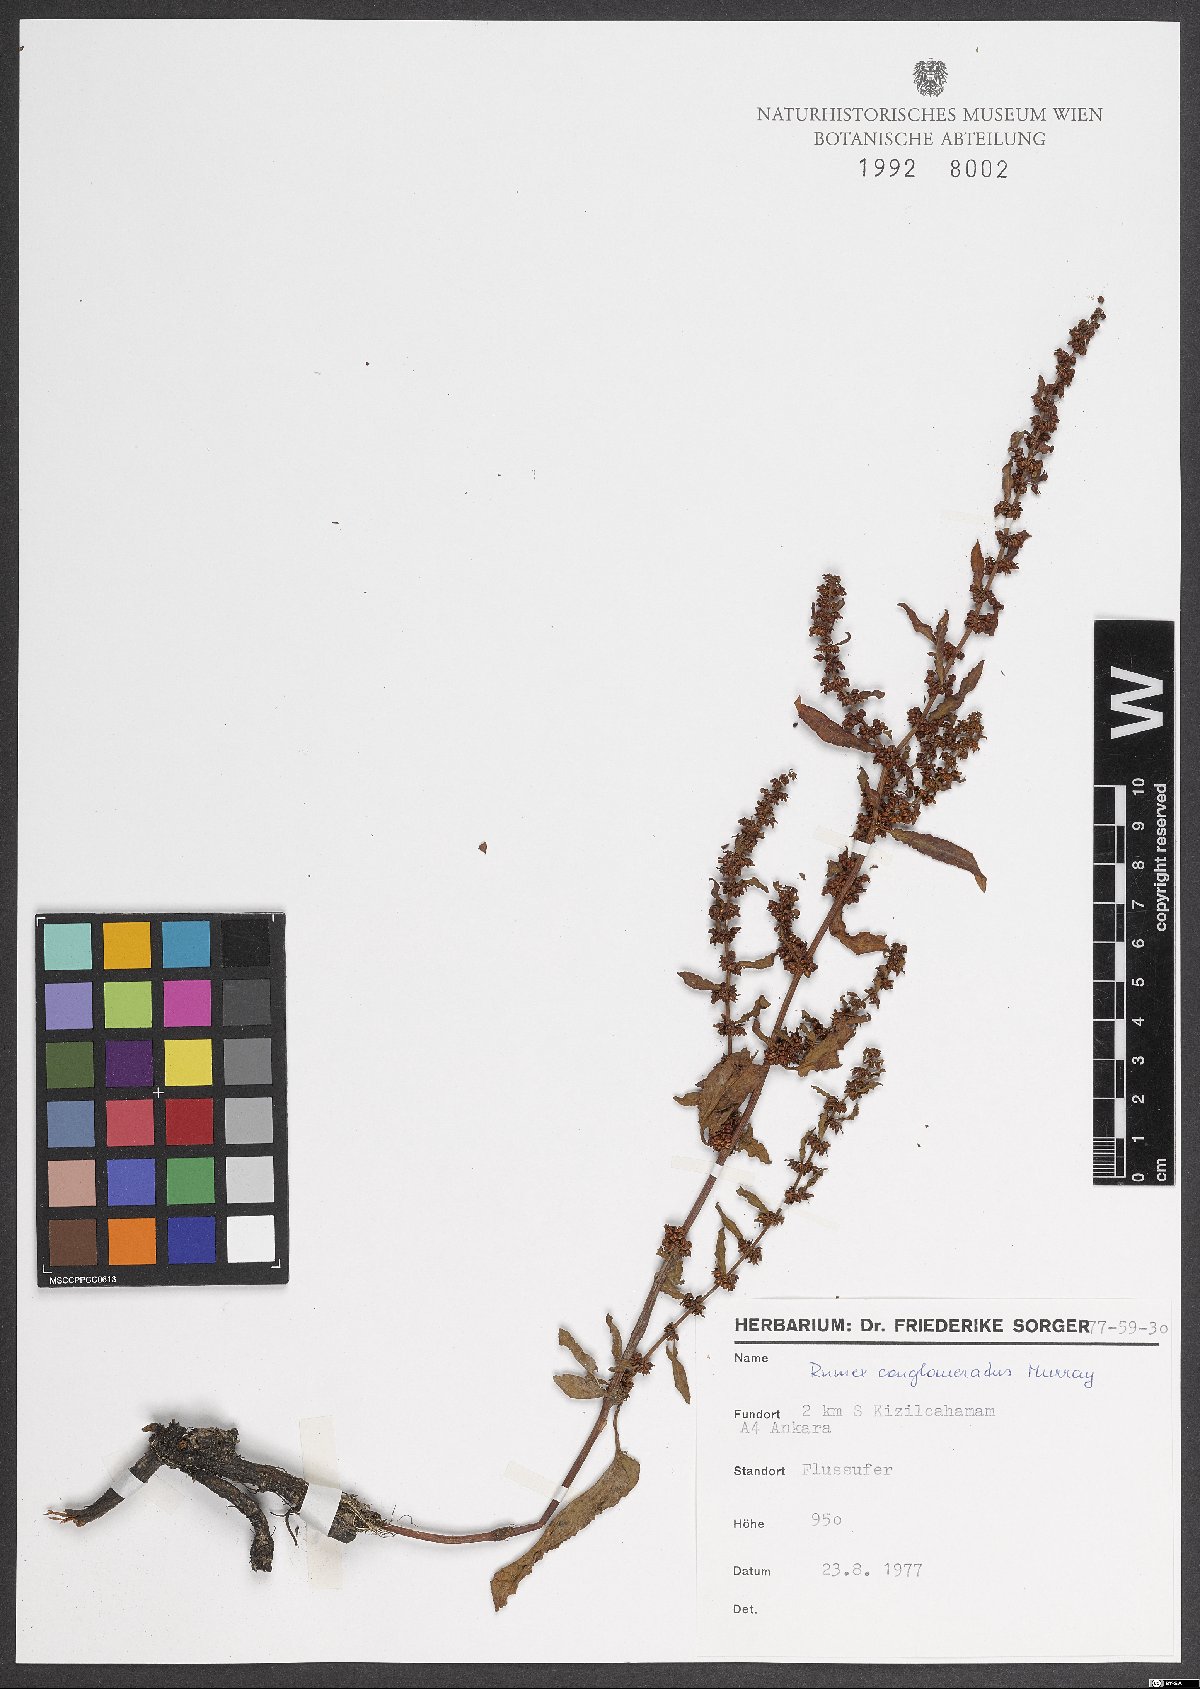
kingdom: Plantae
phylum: Tracheophyta
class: Magnoliopsida
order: Caryophyllales
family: Polygonaceae
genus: Rumex
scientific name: Rumex conglomeratus
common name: Clustered dock
